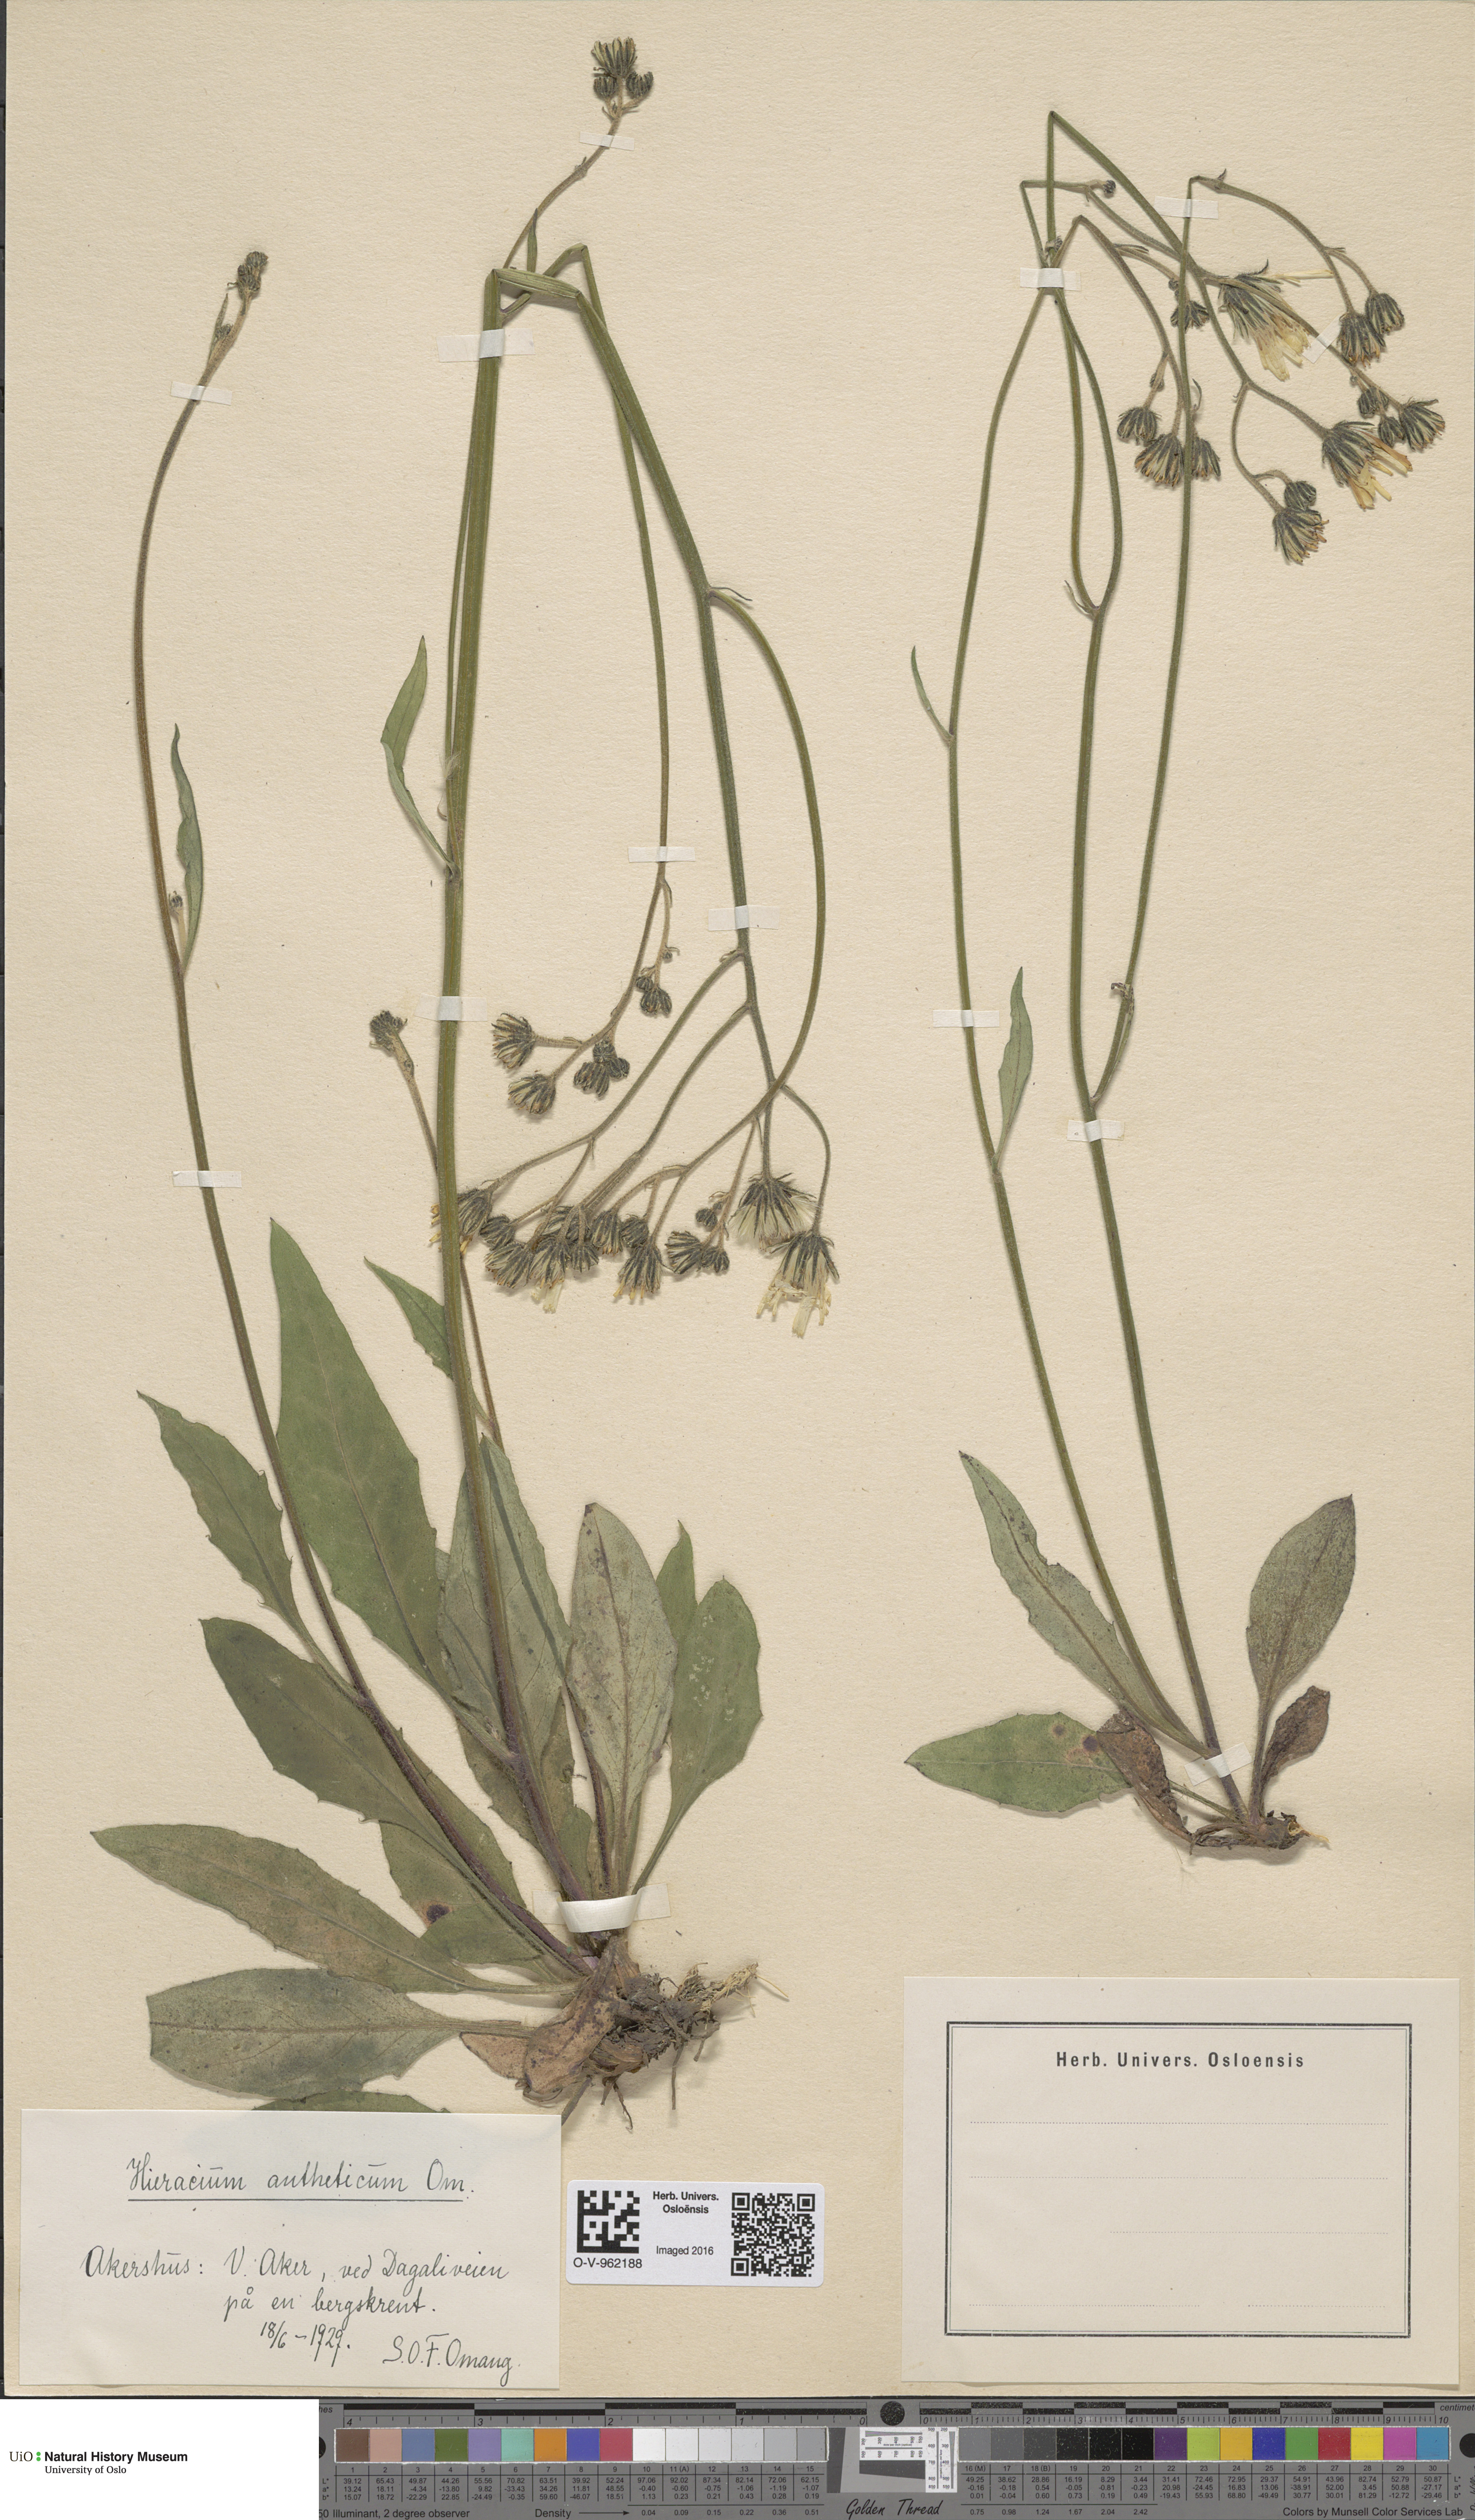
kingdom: Plantae
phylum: Tracheophyta
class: Magnoliopsida
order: Asterales
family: Asteraceae
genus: Hieracium
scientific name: Hieracium
